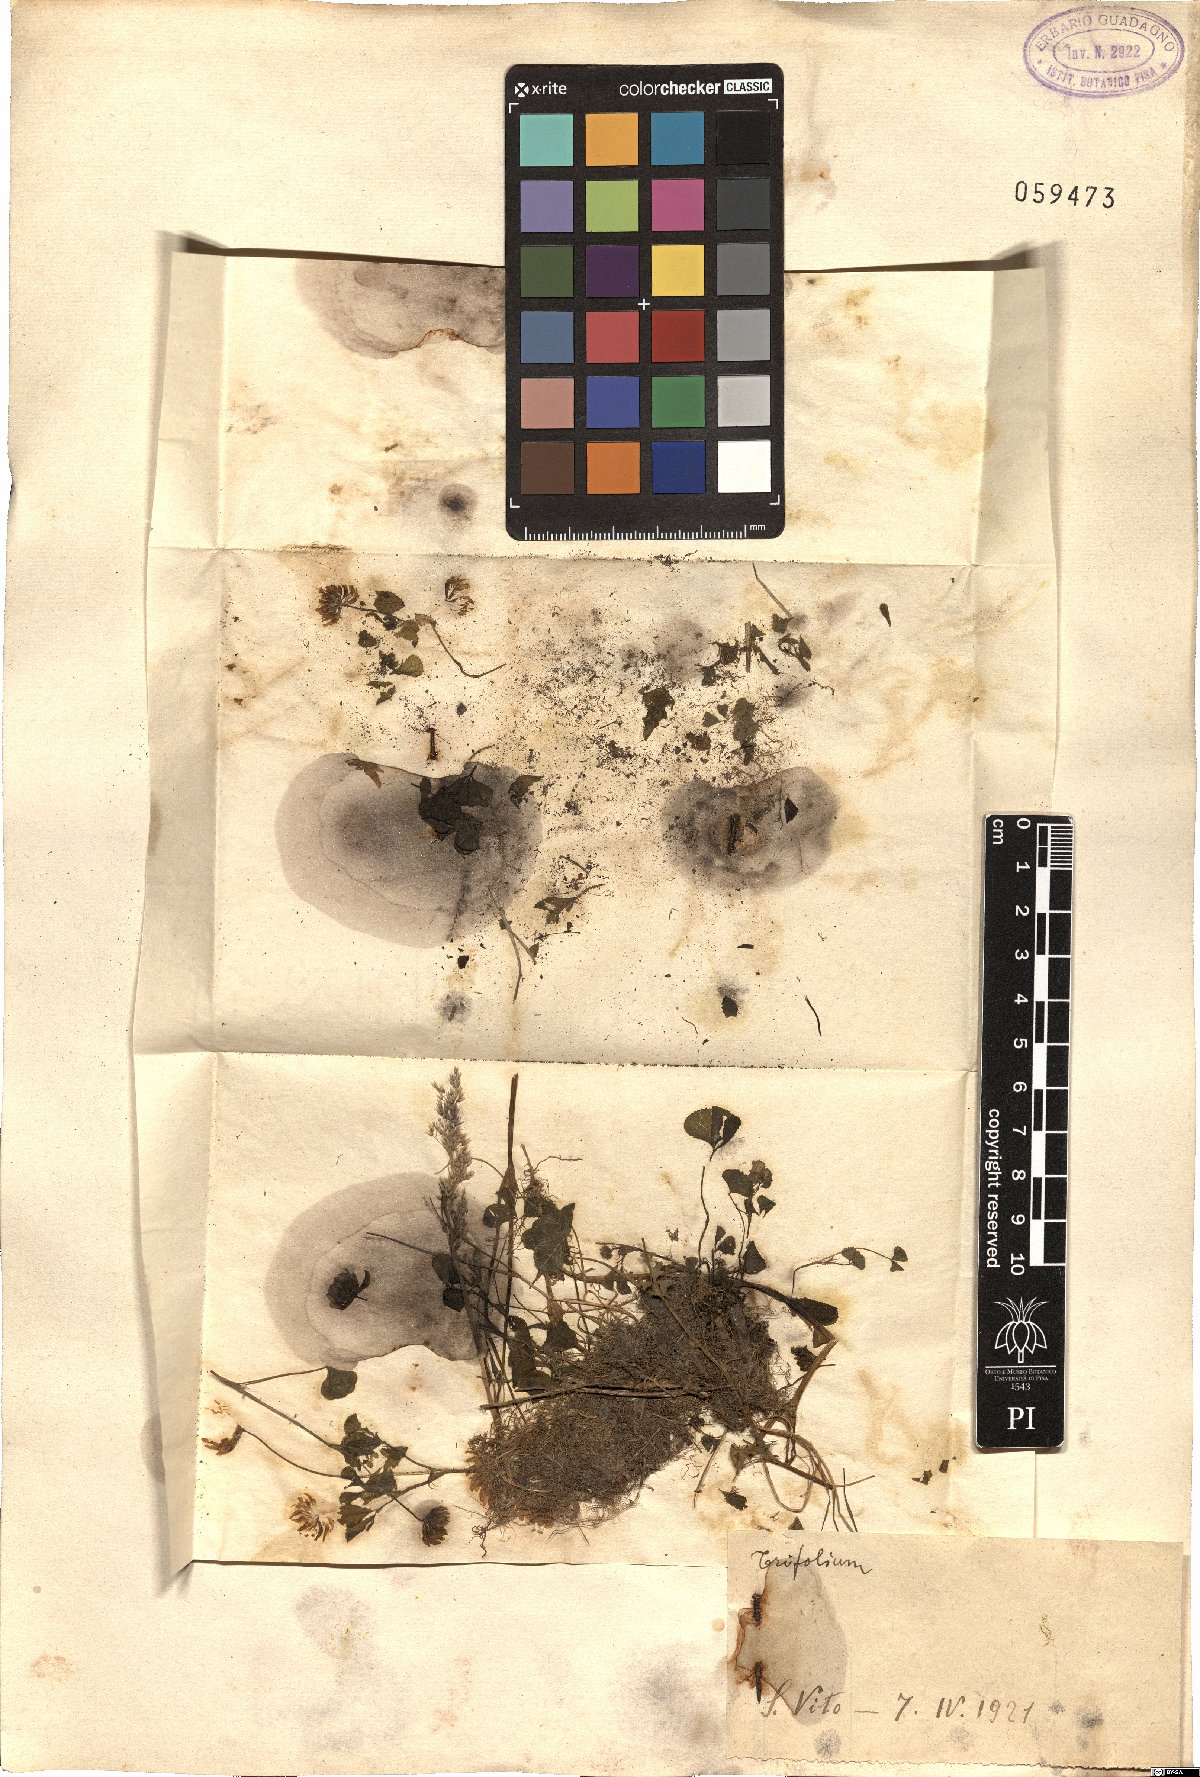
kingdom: Plantae
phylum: Tracheophyta
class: Magnoliopsida
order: Fabales
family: Fabaceae
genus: Trifolium
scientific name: Trifolium
